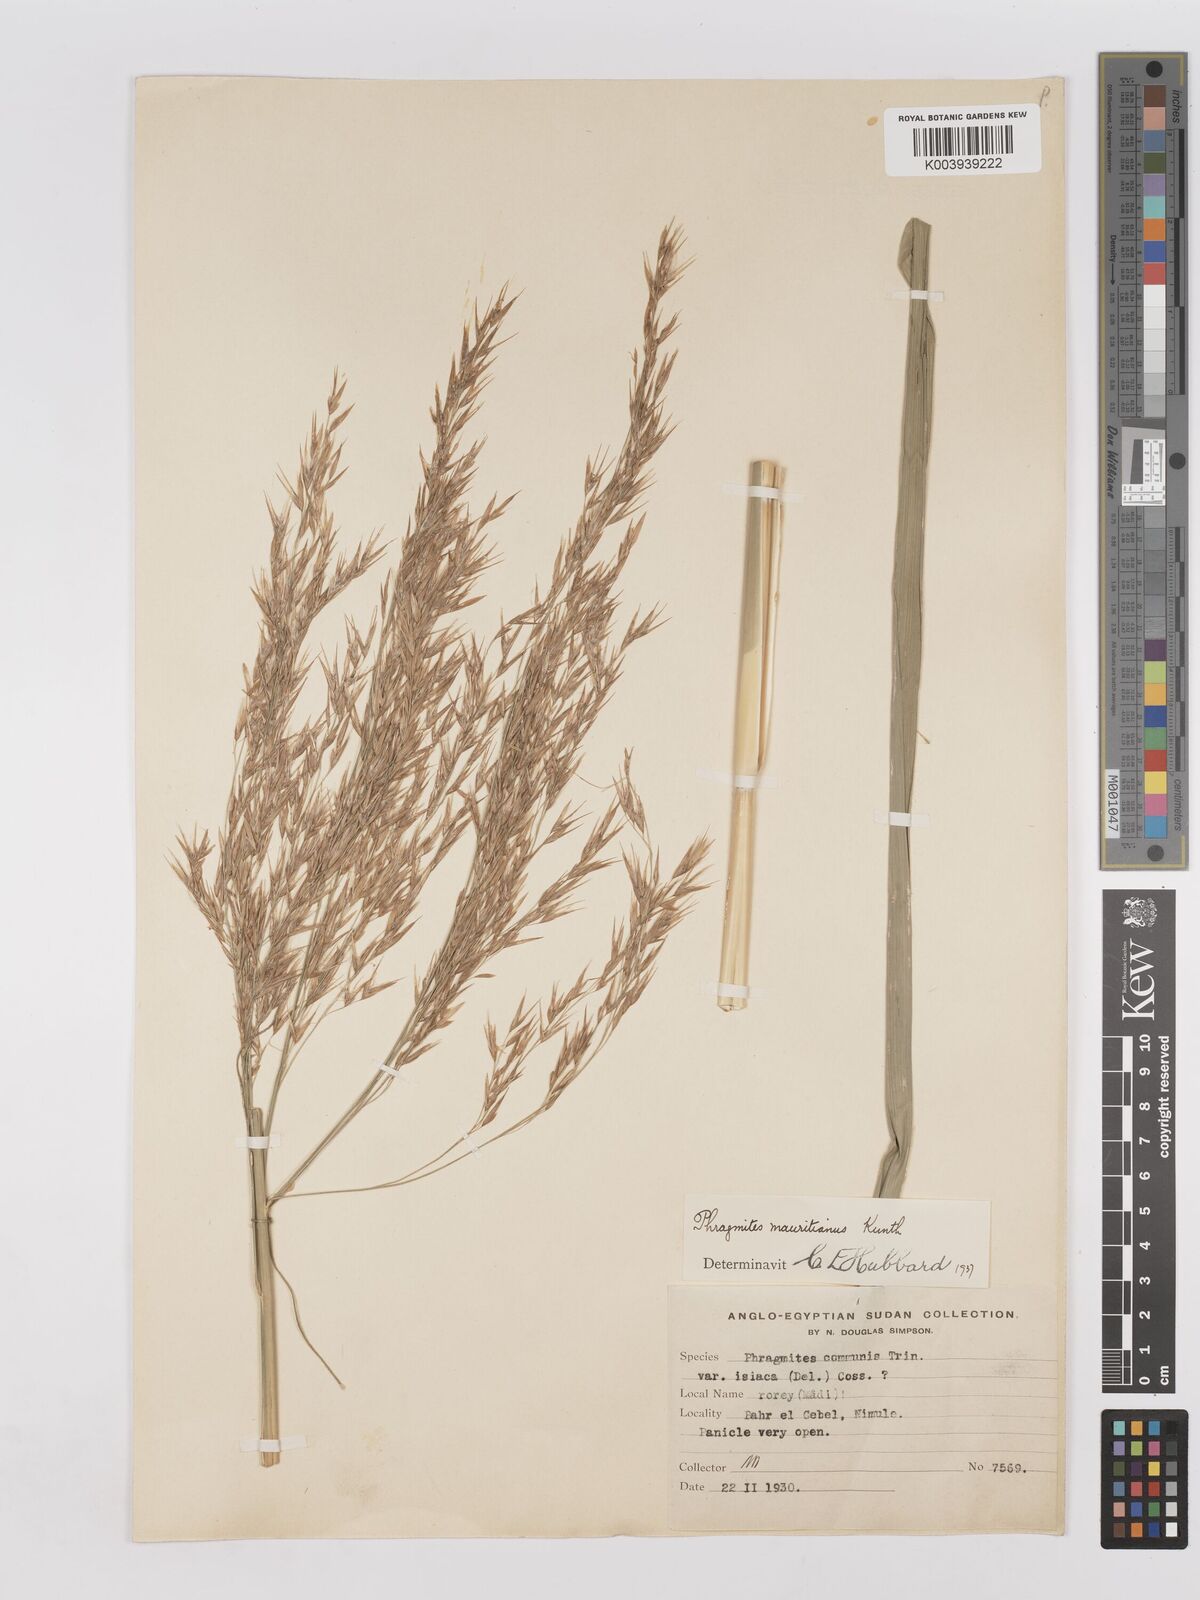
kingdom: Plantae
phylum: Tracheophyta
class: Liliopsida
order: Poales
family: Poaceae
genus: Phragmites
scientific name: Phragmites mauritianus
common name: Reed grass
